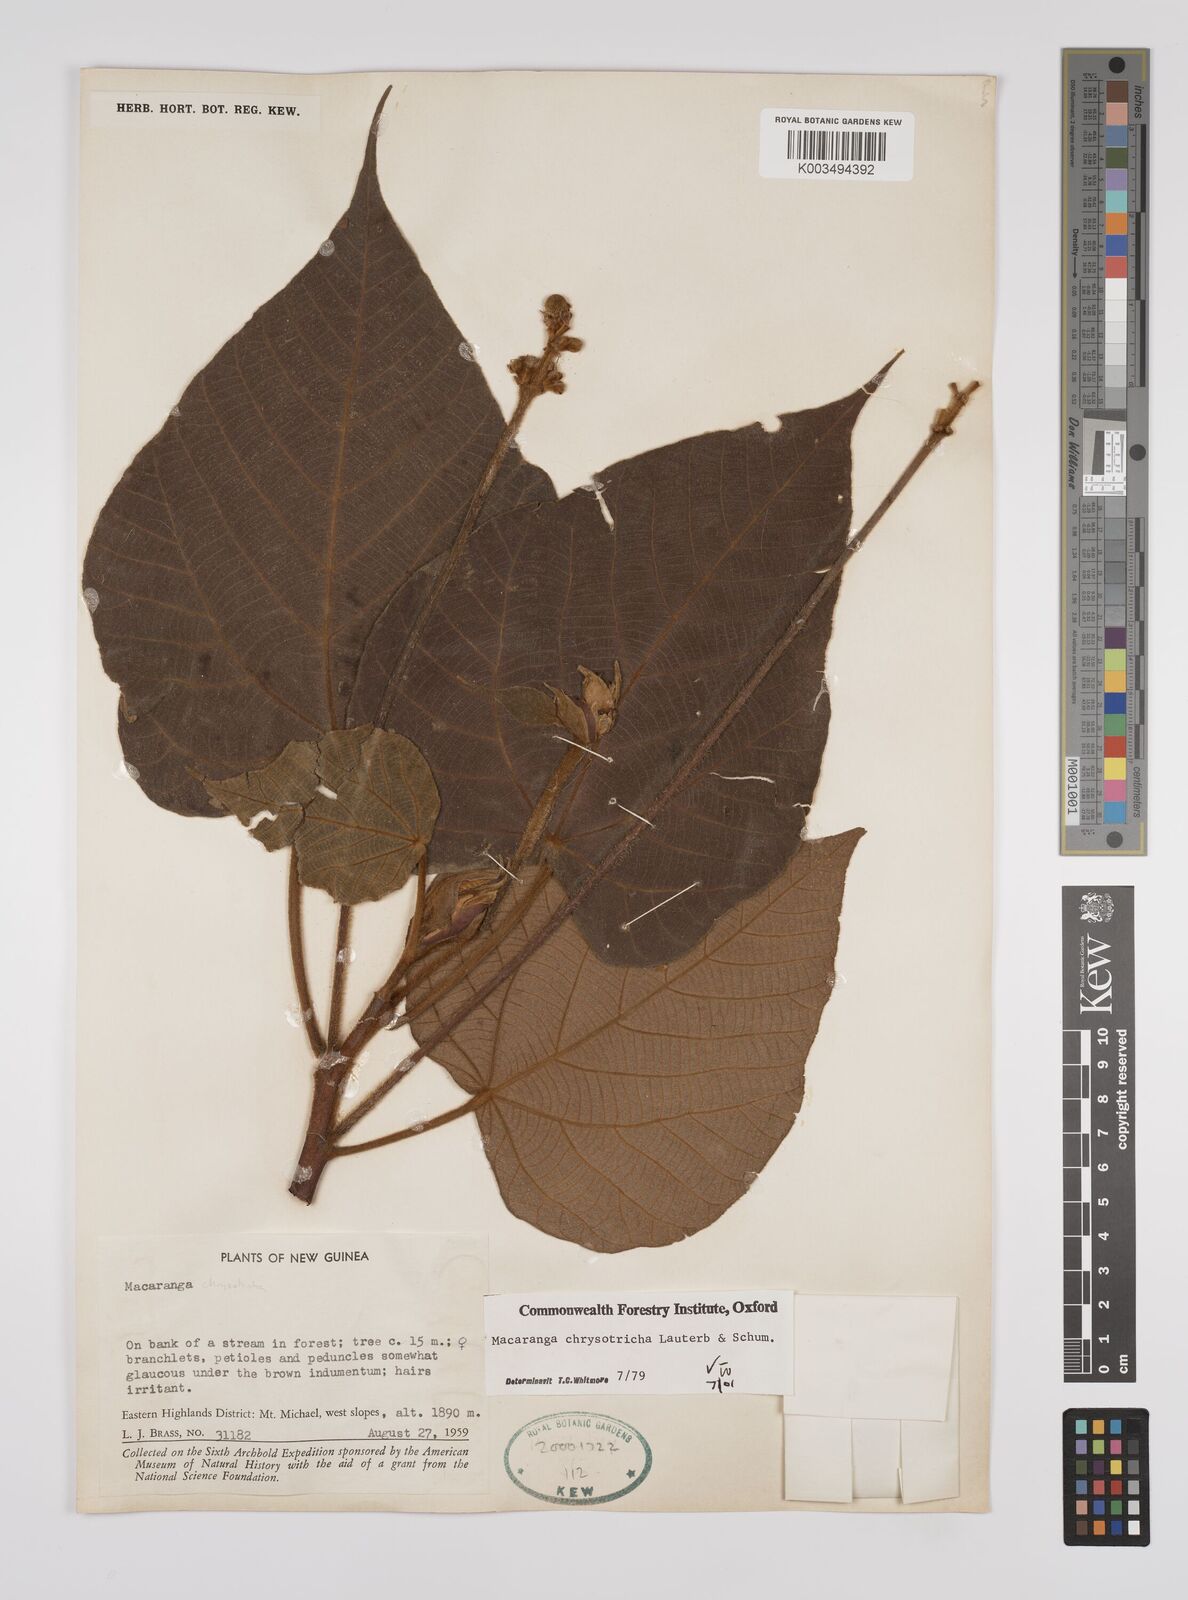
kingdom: Plantae
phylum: Tracheophyta
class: Magnoliopsida
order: Malpighiales
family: Euphorbiaceae
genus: Macaranga
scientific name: Macaranga chrysotricha
